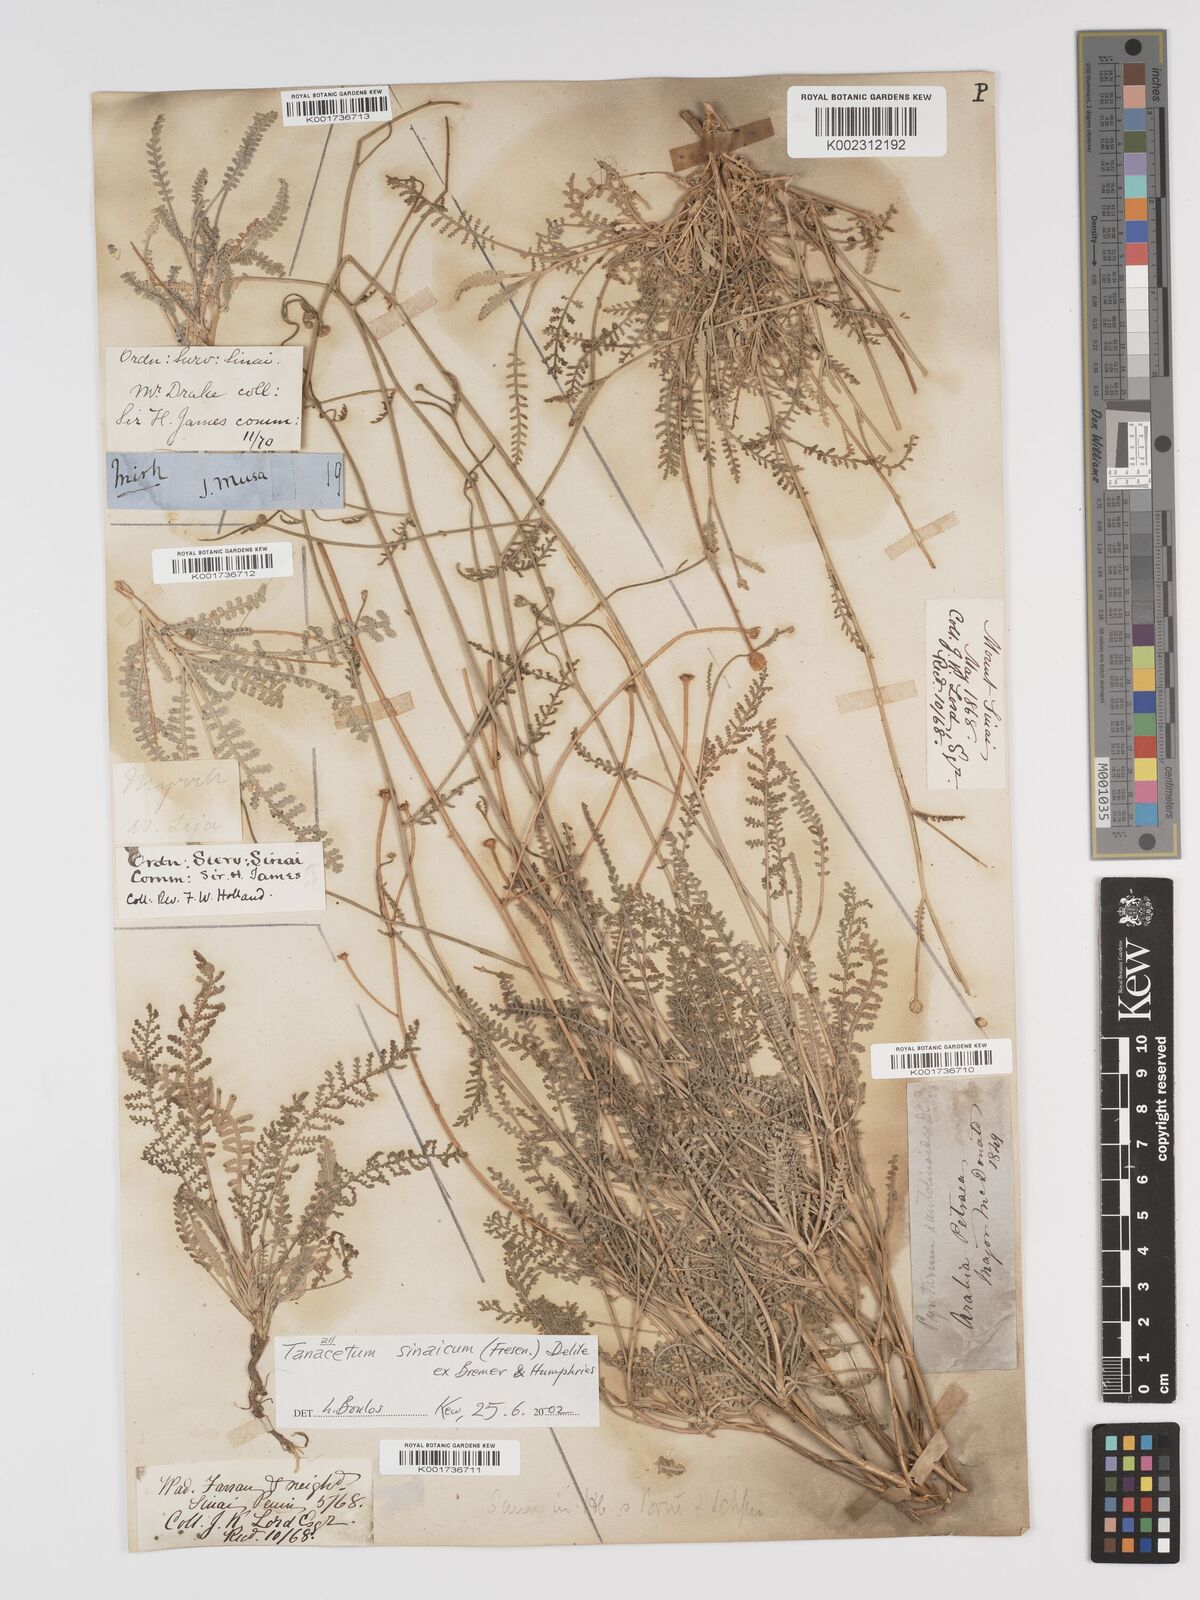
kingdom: Plantae
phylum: Tracheophyta
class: Magnoliopsida
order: Asterales
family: Asteraceae
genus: Tanacetum
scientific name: Tanacetum sinaicum
